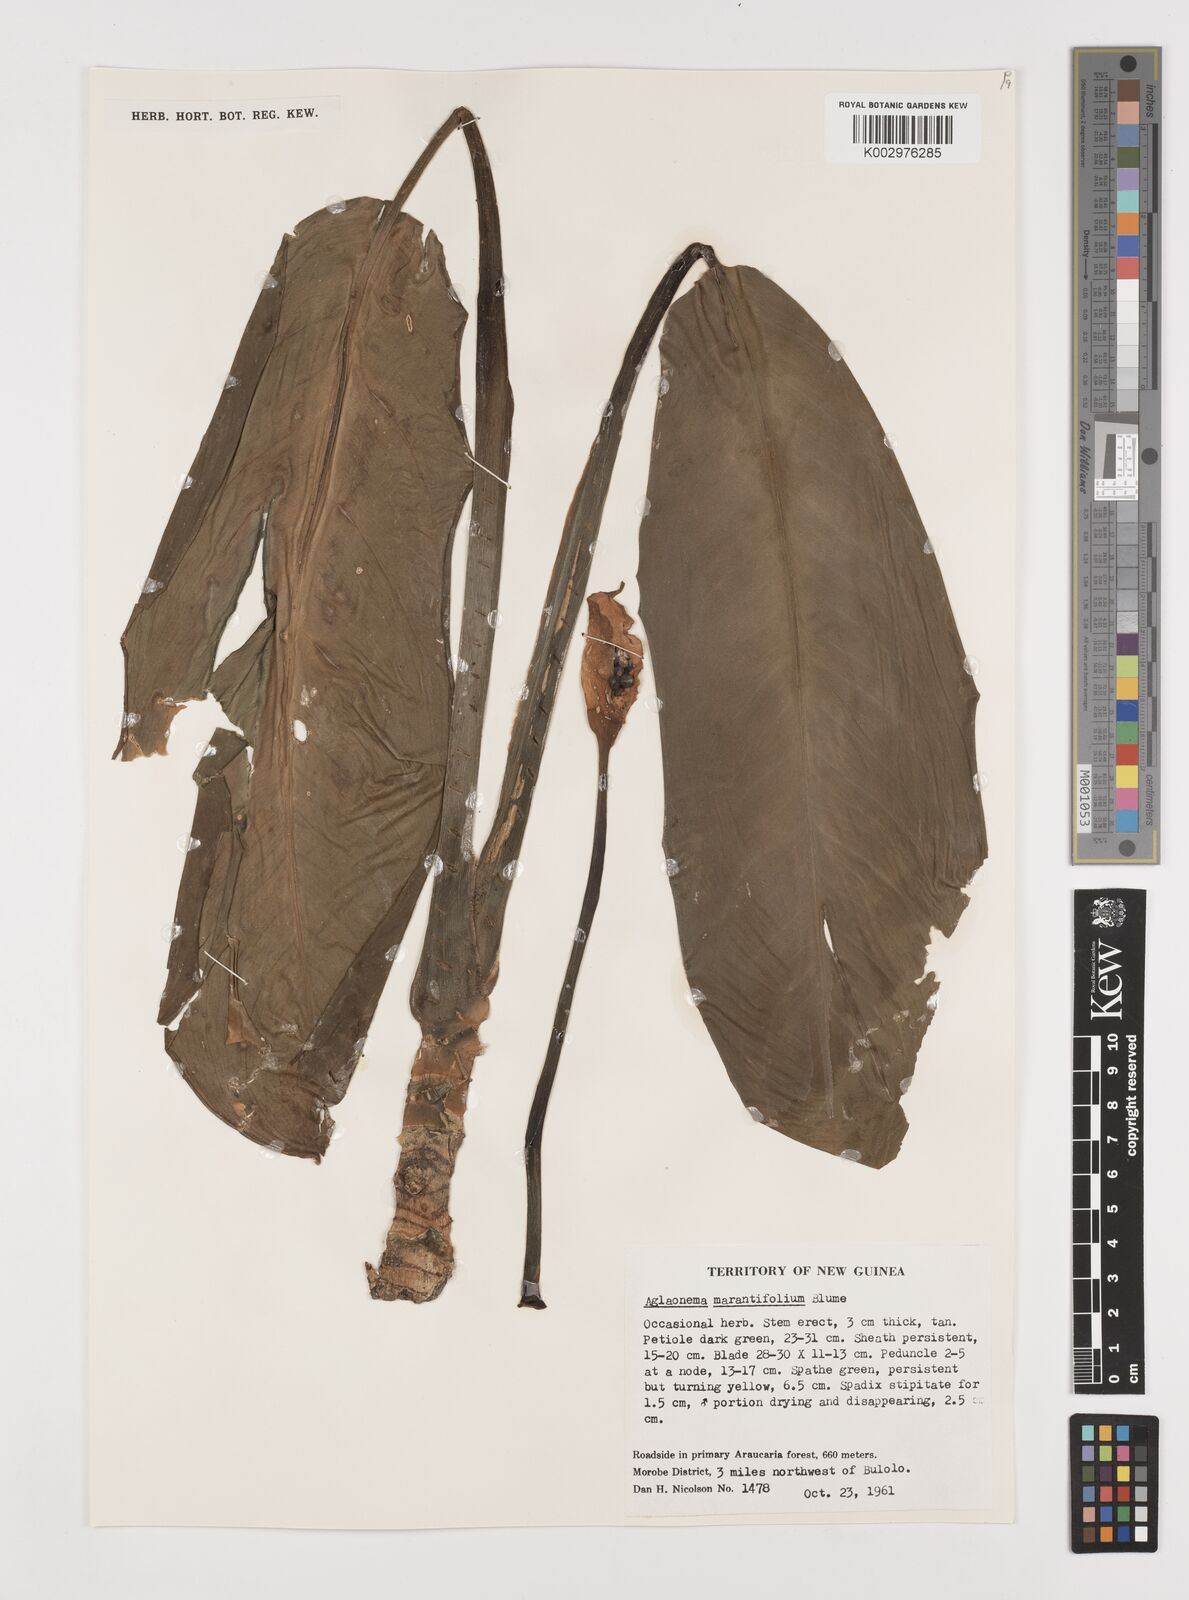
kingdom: Plantae
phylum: Tracheophyta
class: Liliopsida
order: Alismatales
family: Araceae
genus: Aglaonema
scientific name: Aglaonema marantifolium
